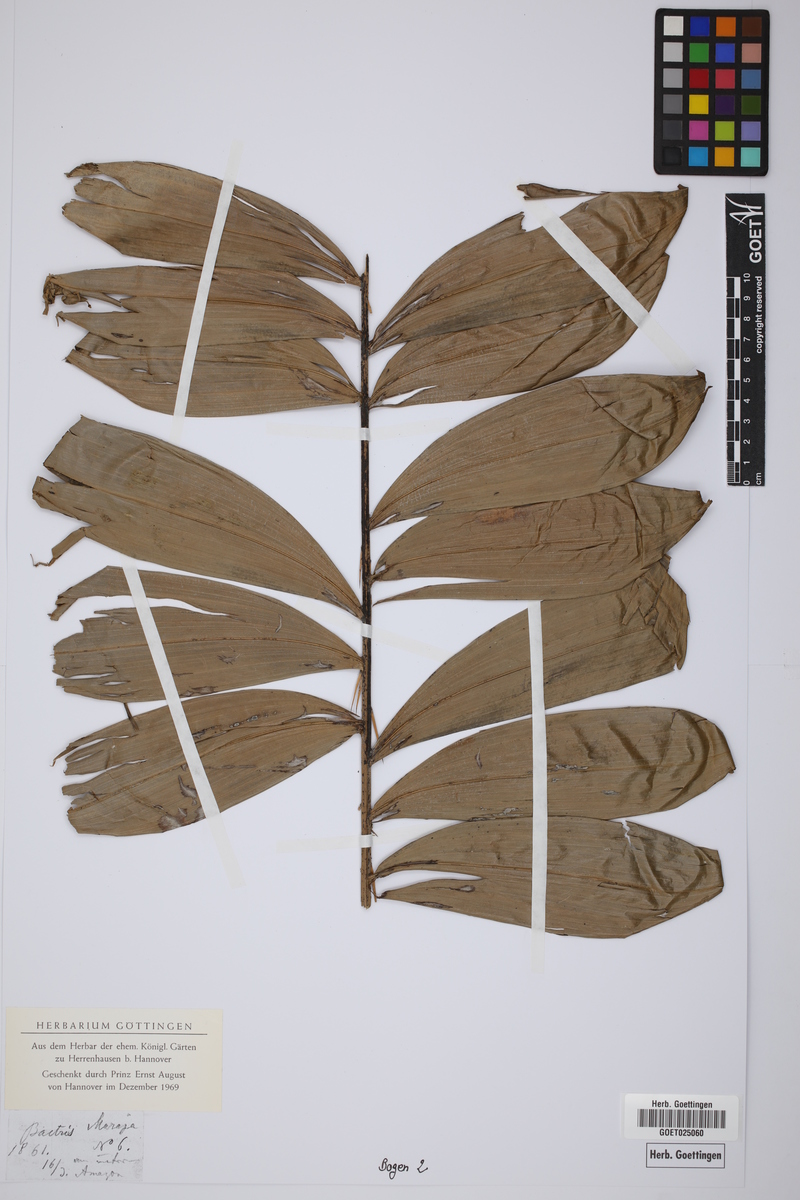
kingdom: Plantae
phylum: Tracheophyta
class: Liliopsida
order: Arecales
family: Arecaceae
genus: Bactris
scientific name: Bactris maraja
